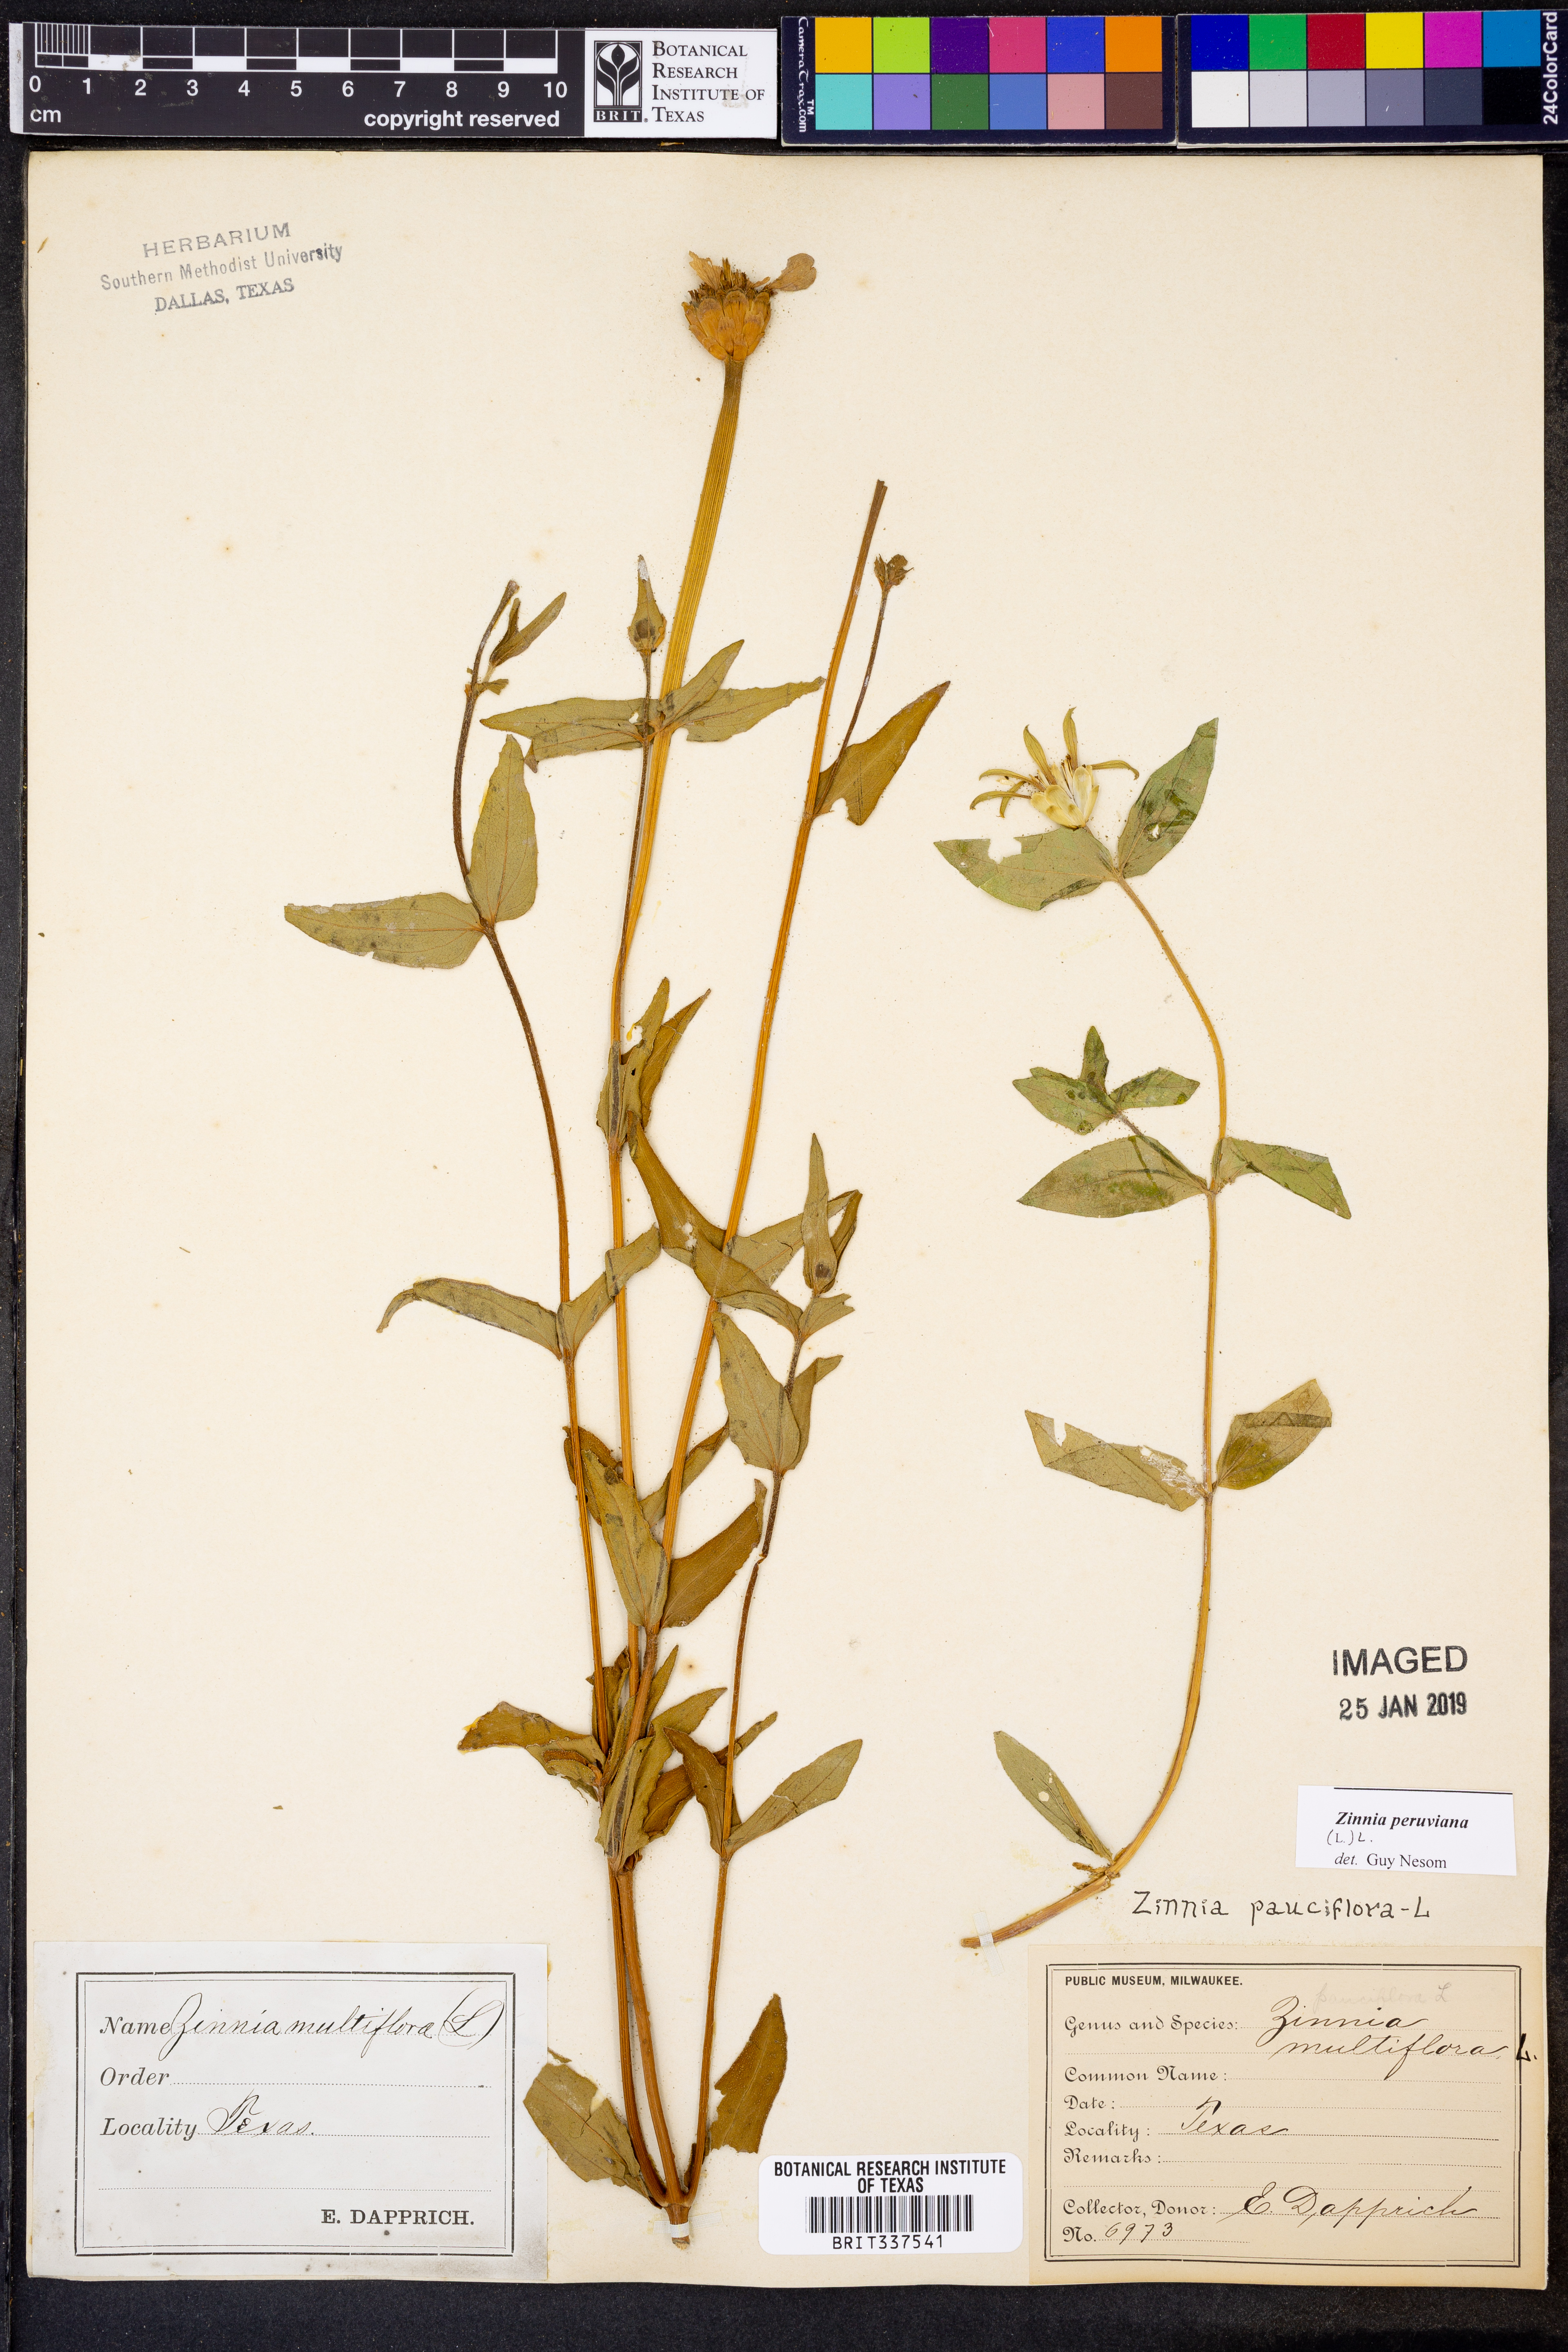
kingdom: Plantae
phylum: Tracheophyta
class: Magnoliopsida
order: Asterales
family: Asteraceae
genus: Zinnia
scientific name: Zinnia peruviana
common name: Peruvian zinnia
